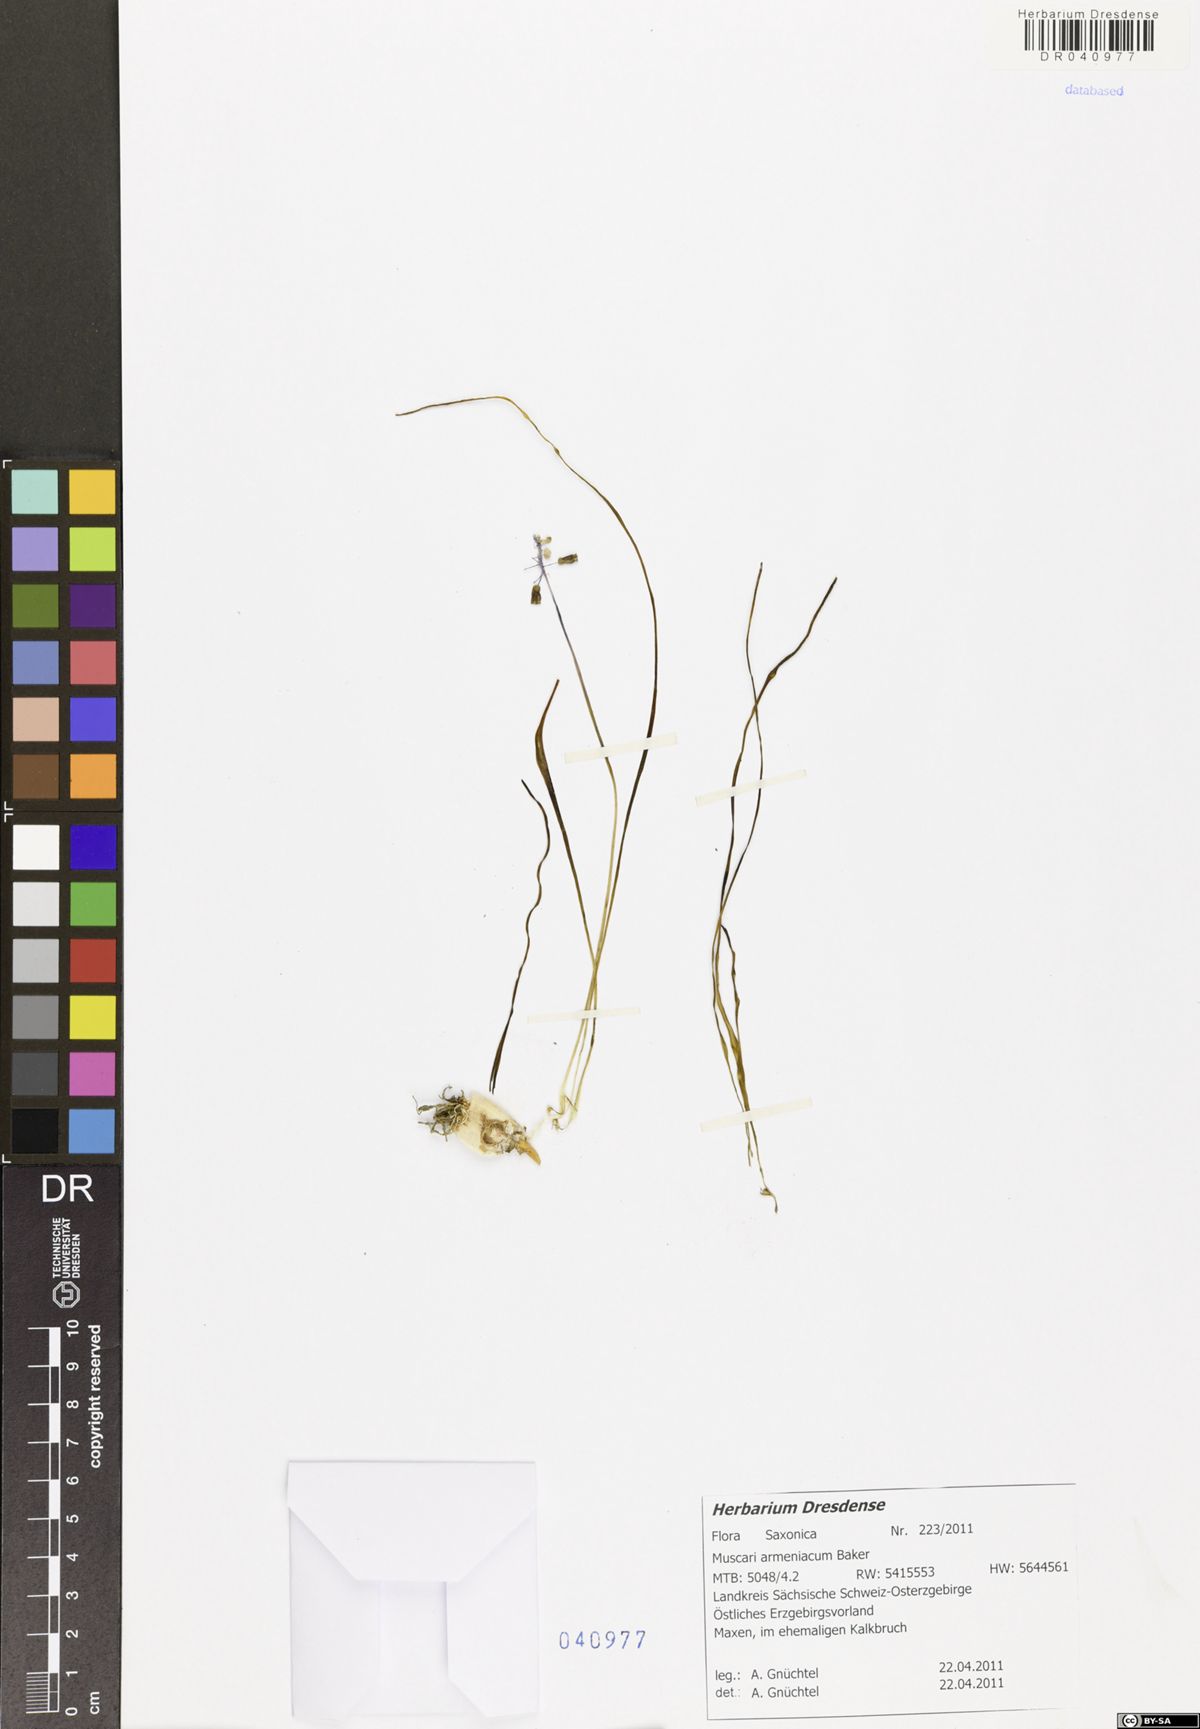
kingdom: Plantae
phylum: Tracheophyta
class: Liliopsida
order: Asparagales
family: Asparagaceae
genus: Muscari
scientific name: Muscari armeniacum
